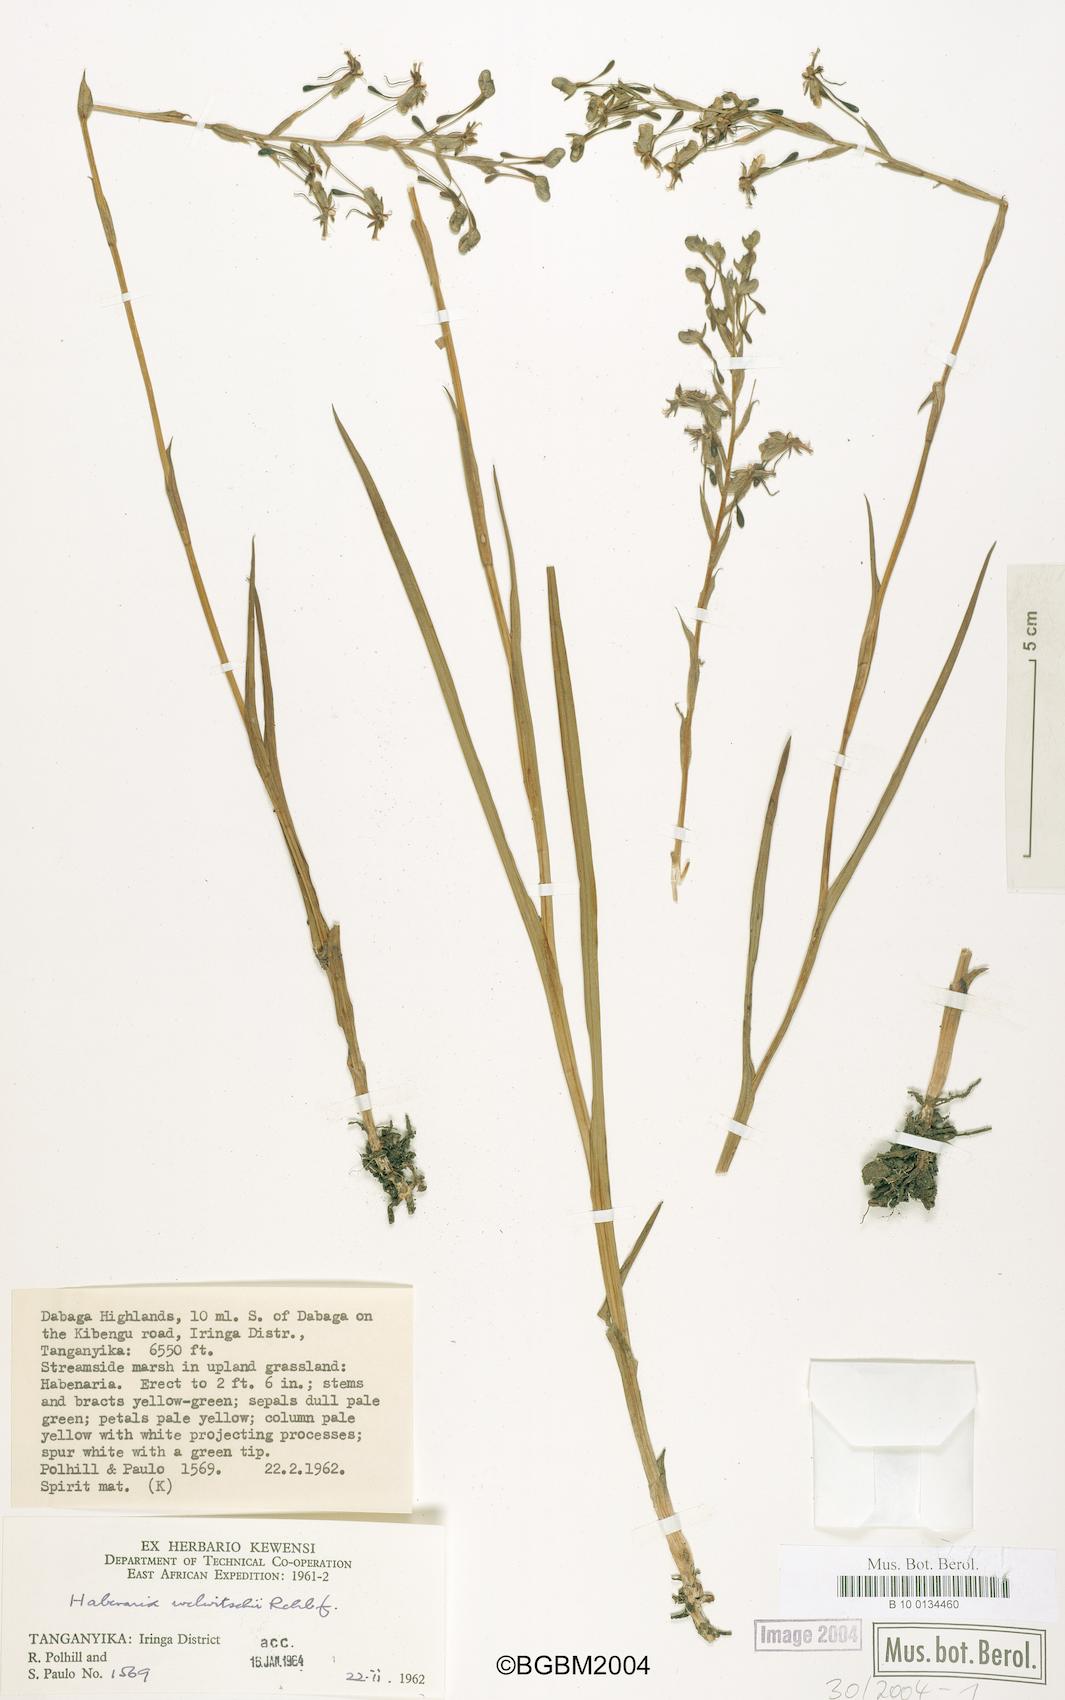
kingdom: Plantae
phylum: Tracheophyta
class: Liliopsida
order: Asparagales
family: Orchidaceae
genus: Habenaria
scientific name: Habenaria welwitschii
